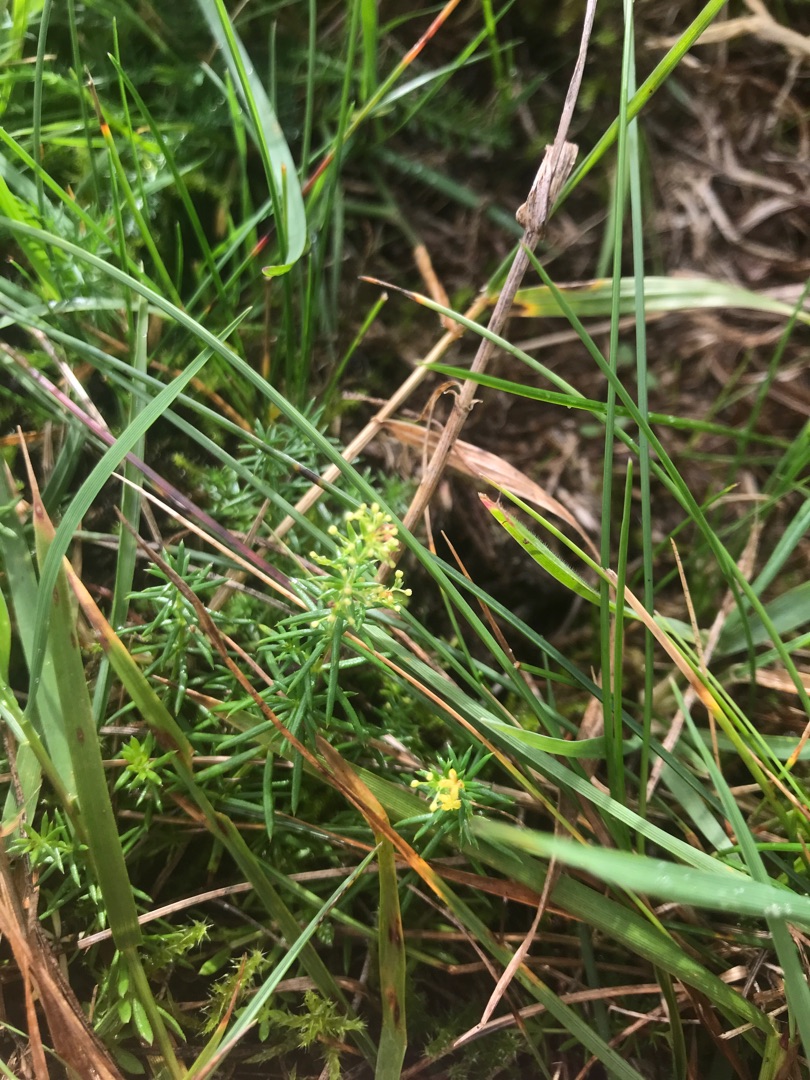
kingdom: Plantae
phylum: Tracheophyta
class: Magnoliopsida
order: Gentianales
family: Rubiaceae
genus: Galium
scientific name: Galium verum
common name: Gul snerre
